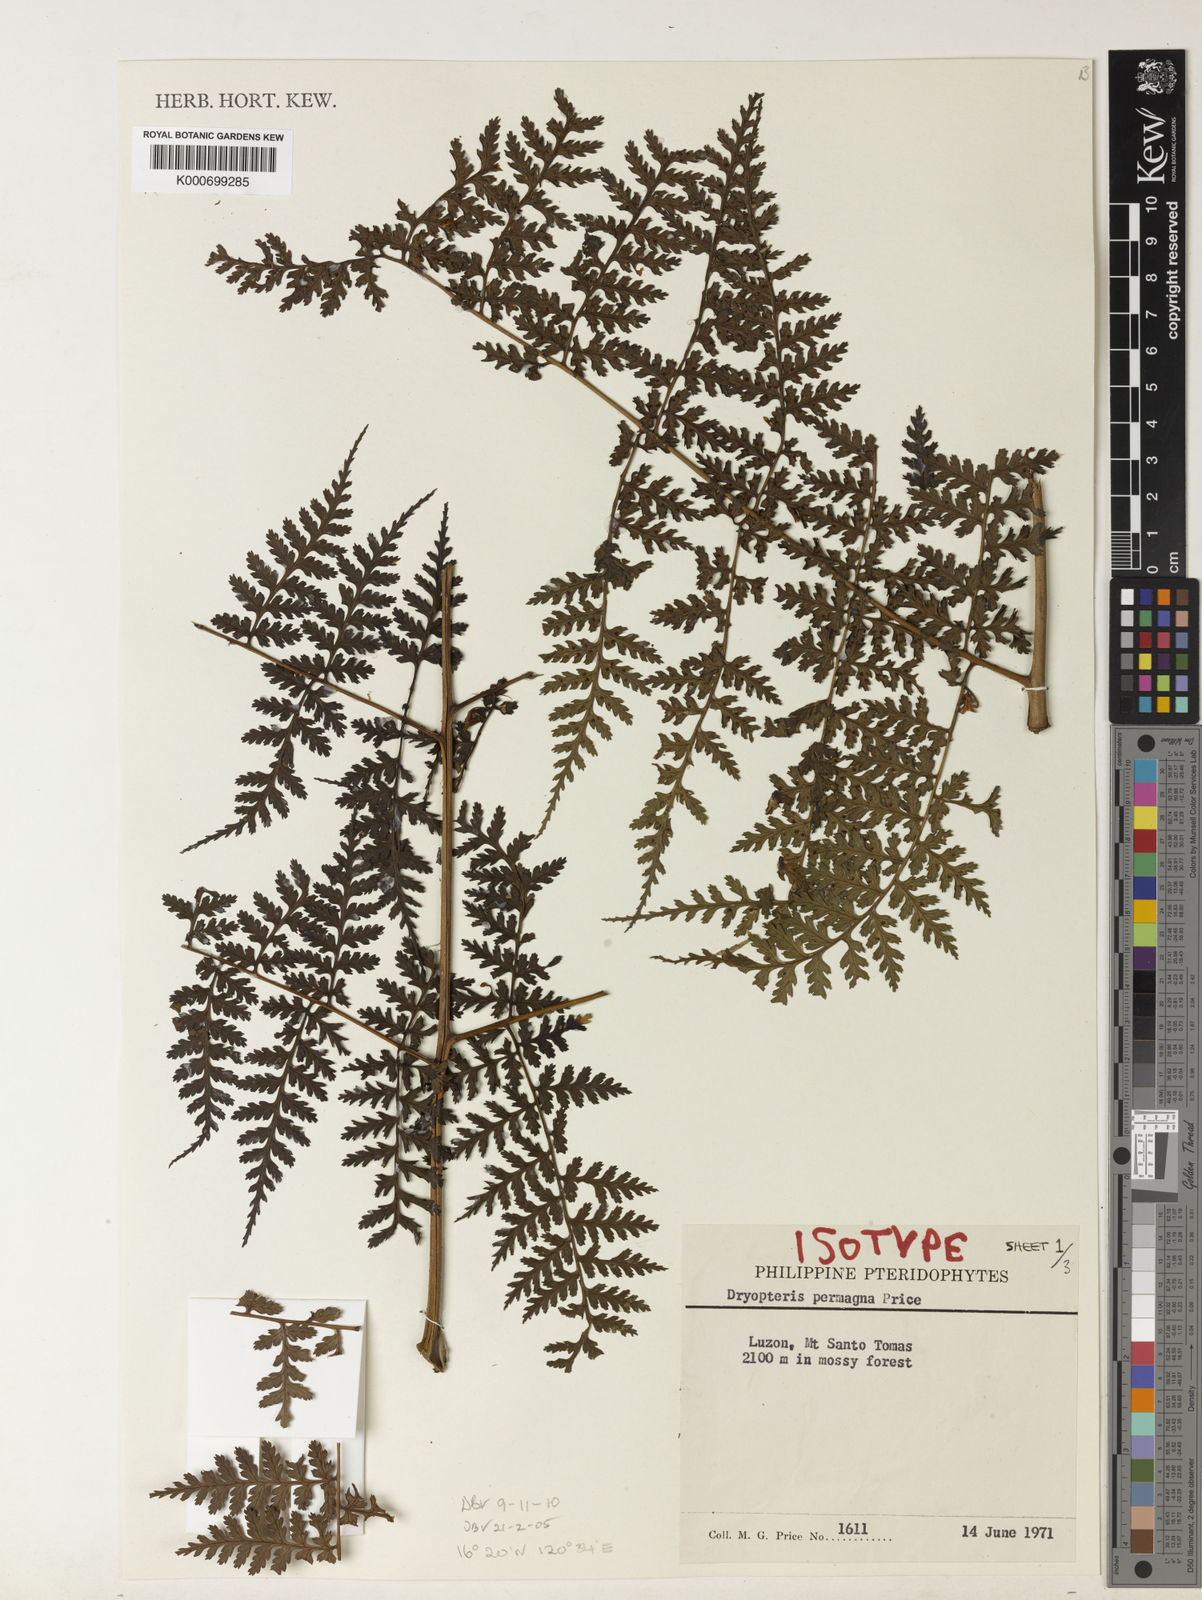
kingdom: Plantae
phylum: Tracheophyta
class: Polypodiopsida
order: Polypodiales
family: Dryopteridaceae
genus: Dryopteris
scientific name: Dryopteris permagna
